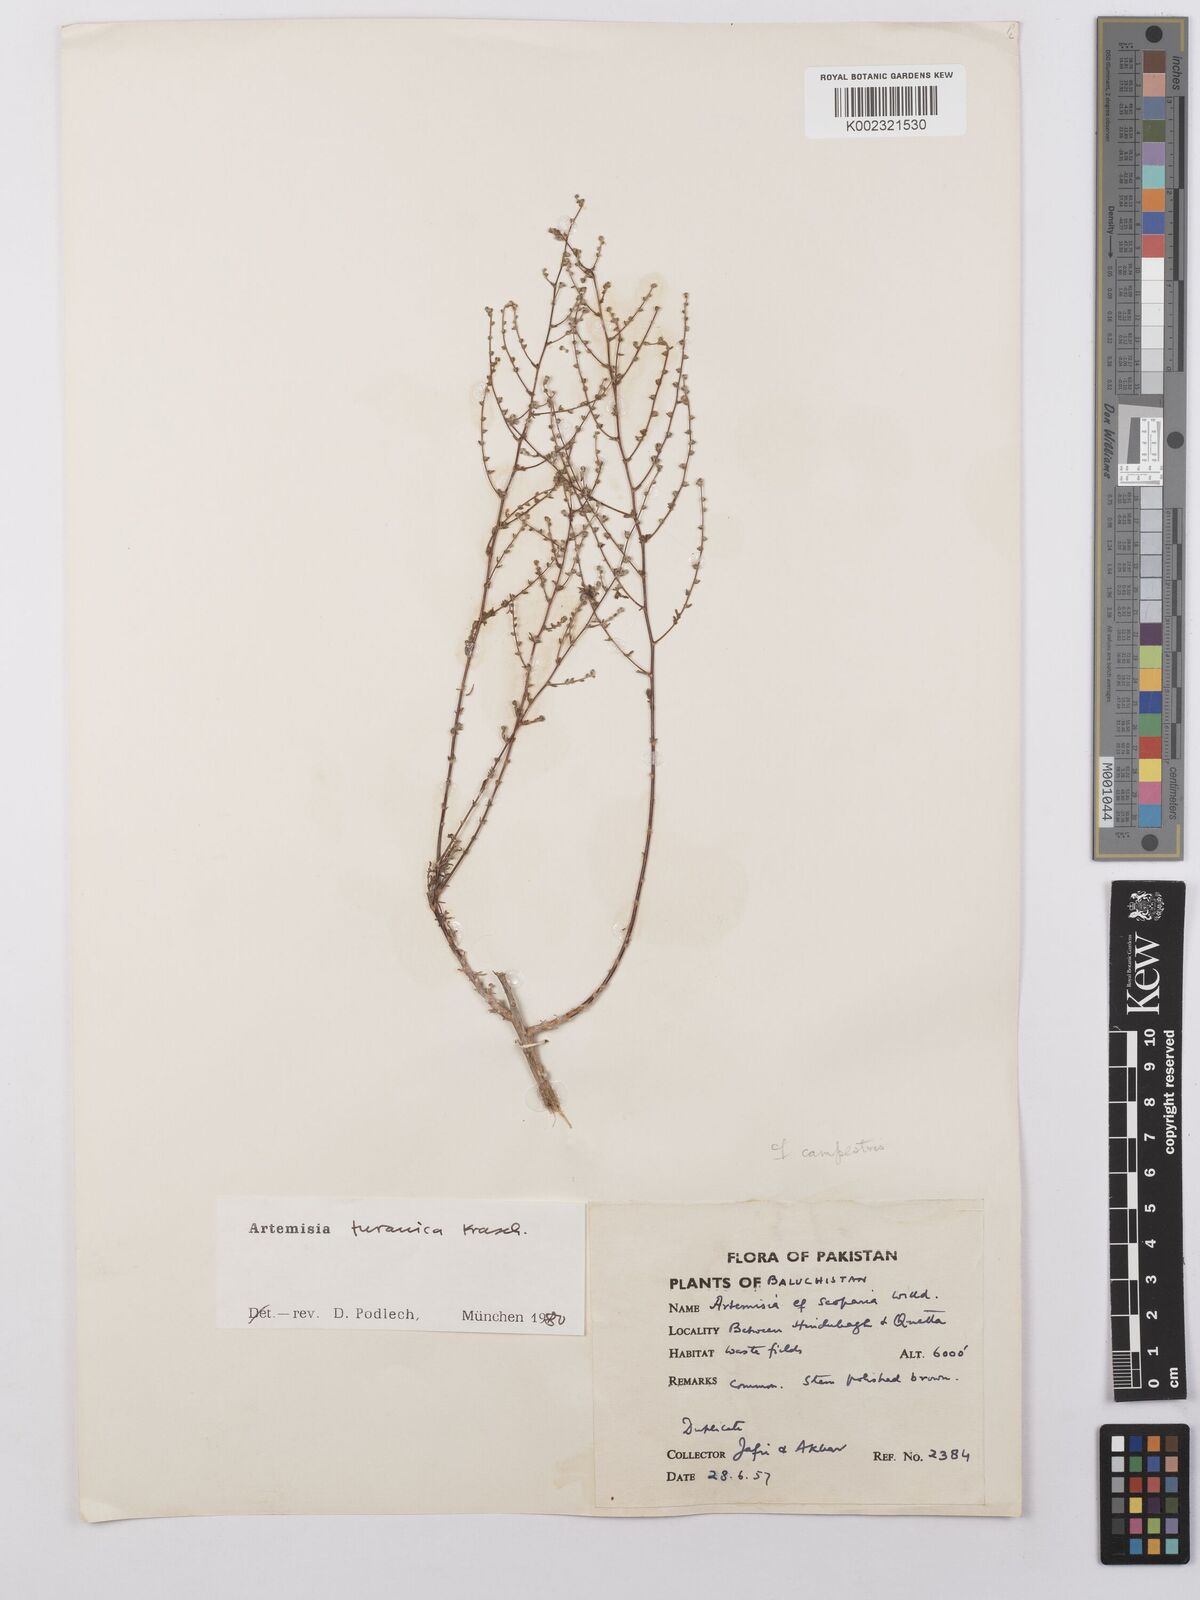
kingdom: Plantae
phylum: Tracheophyta
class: Magnoliopsida
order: Asterales
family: Asteraceae
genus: Artemisia
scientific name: Artemisia turanica
